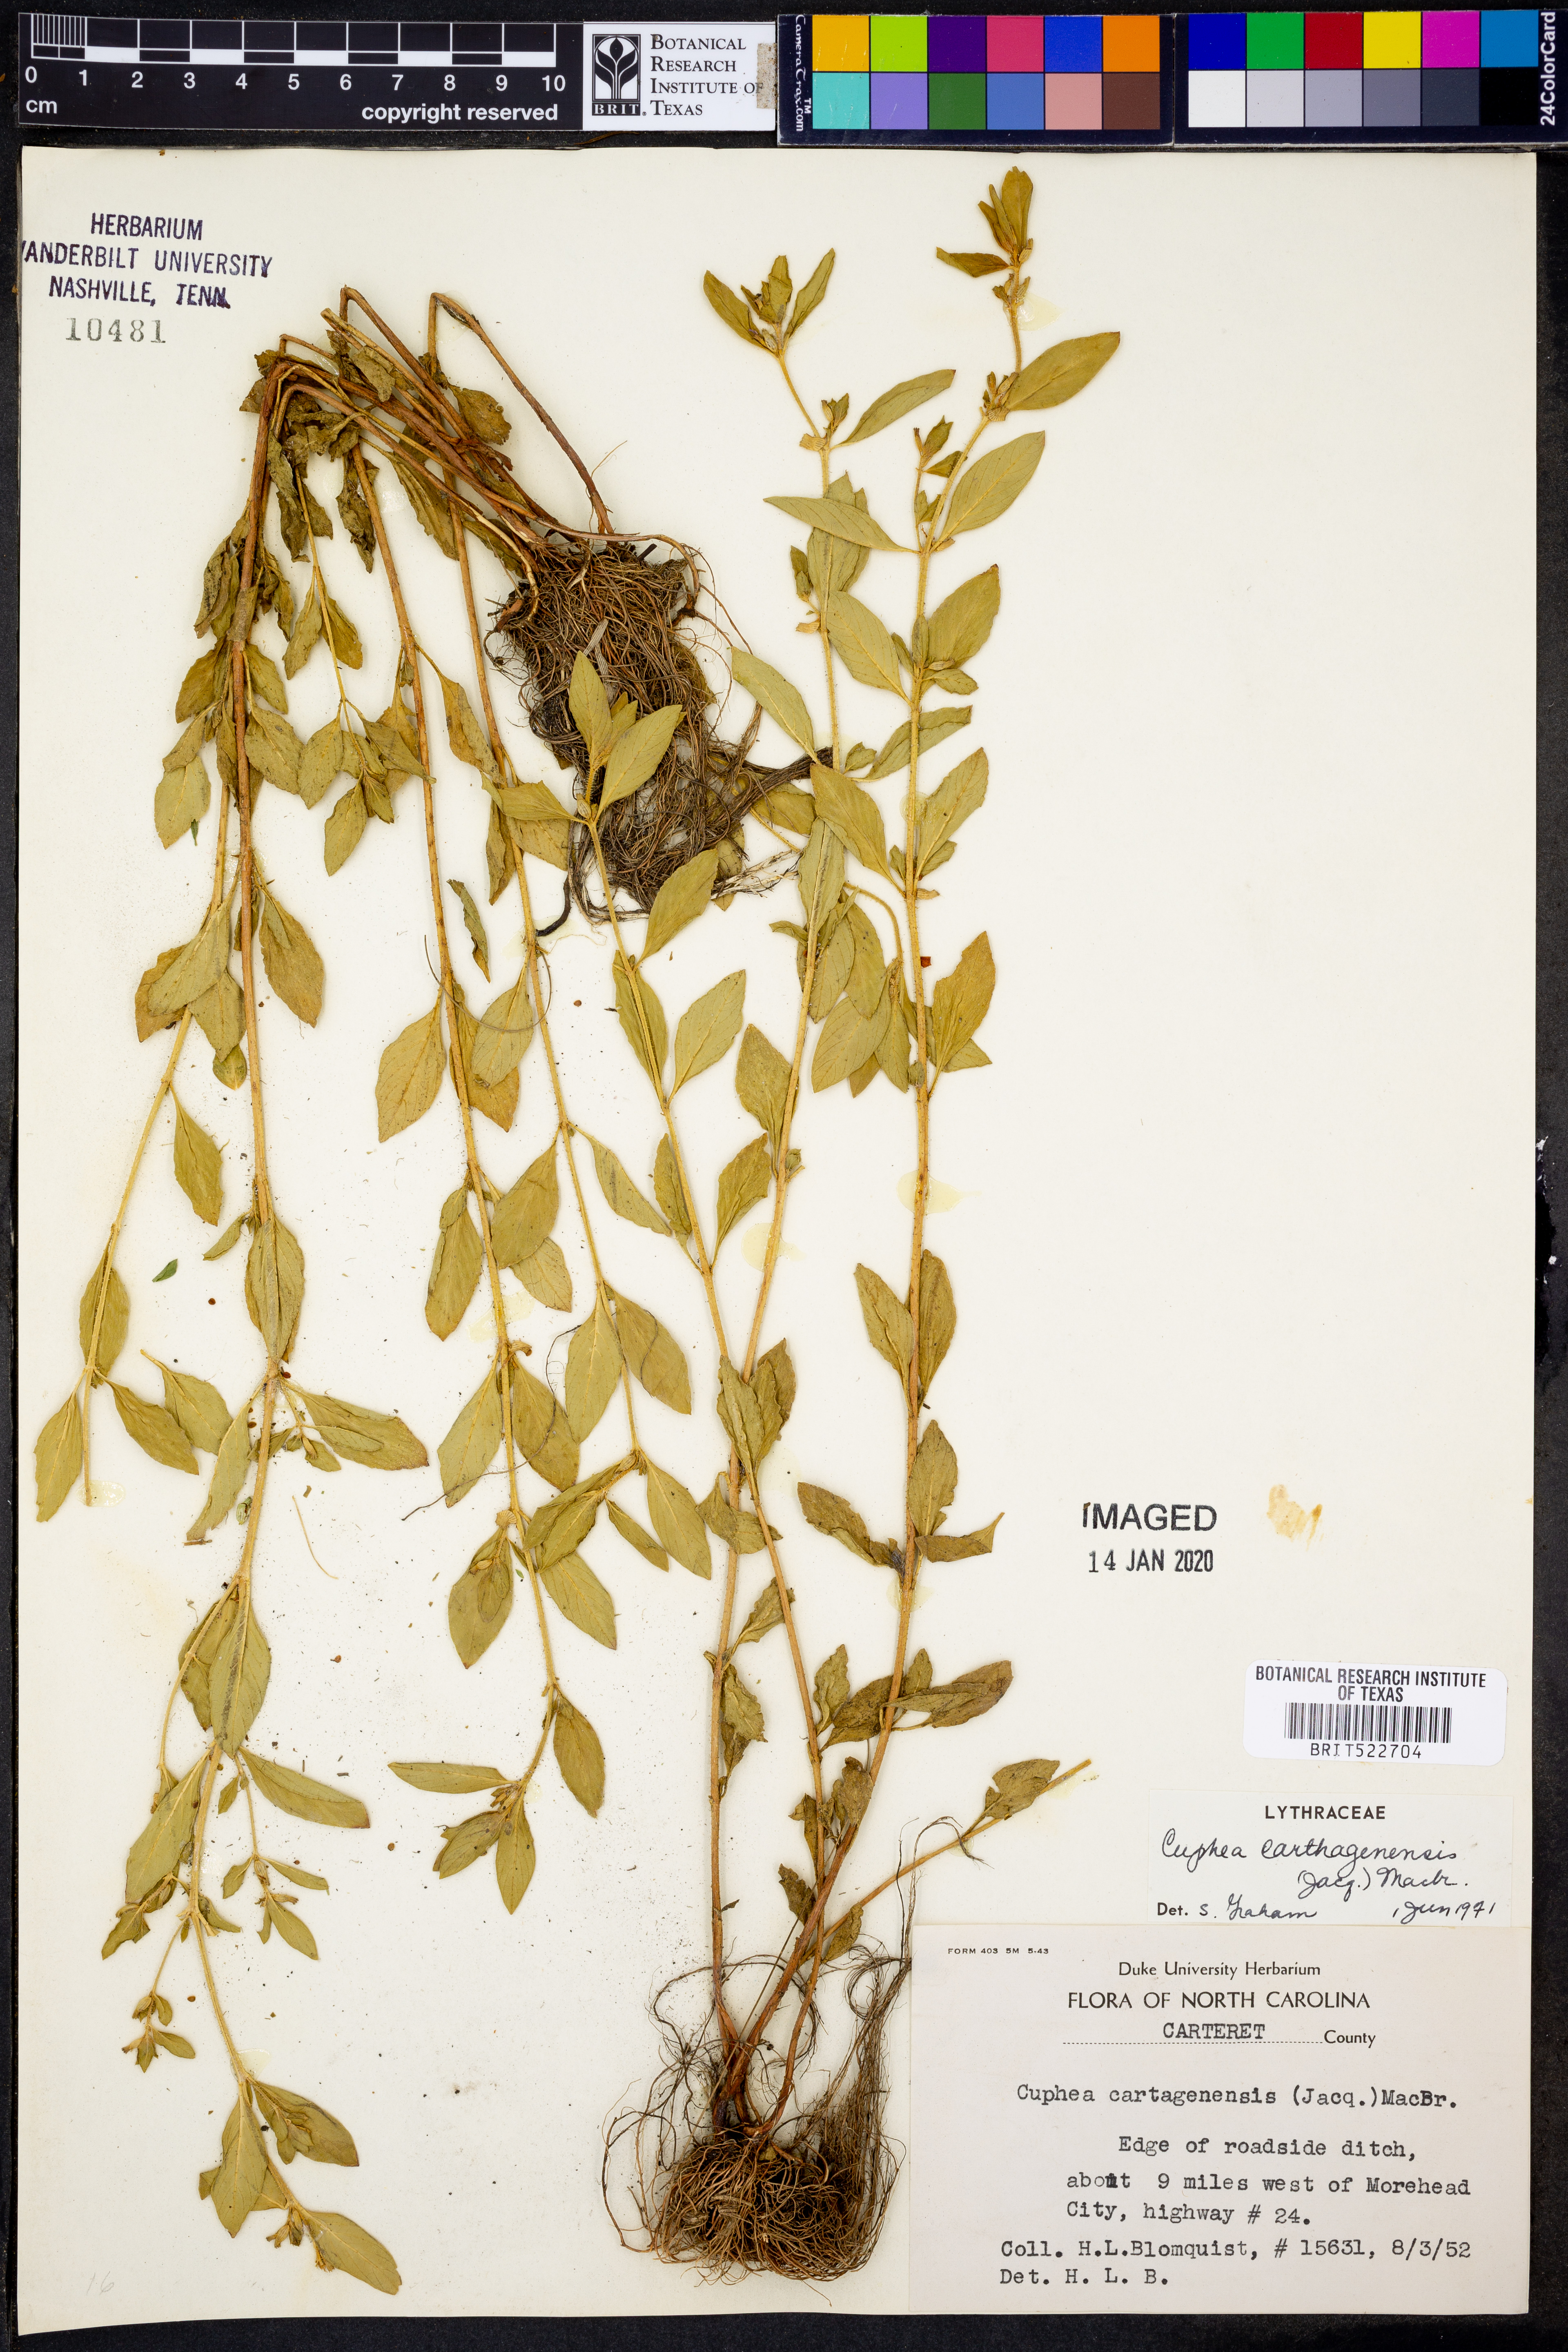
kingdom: Plantae
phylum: Tracheophyta
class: Magnoliopsida
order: Myrtales
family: Lythraceae
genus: Cuphea
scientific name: Cuphea carthagenensis
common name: Colombian waxweed
